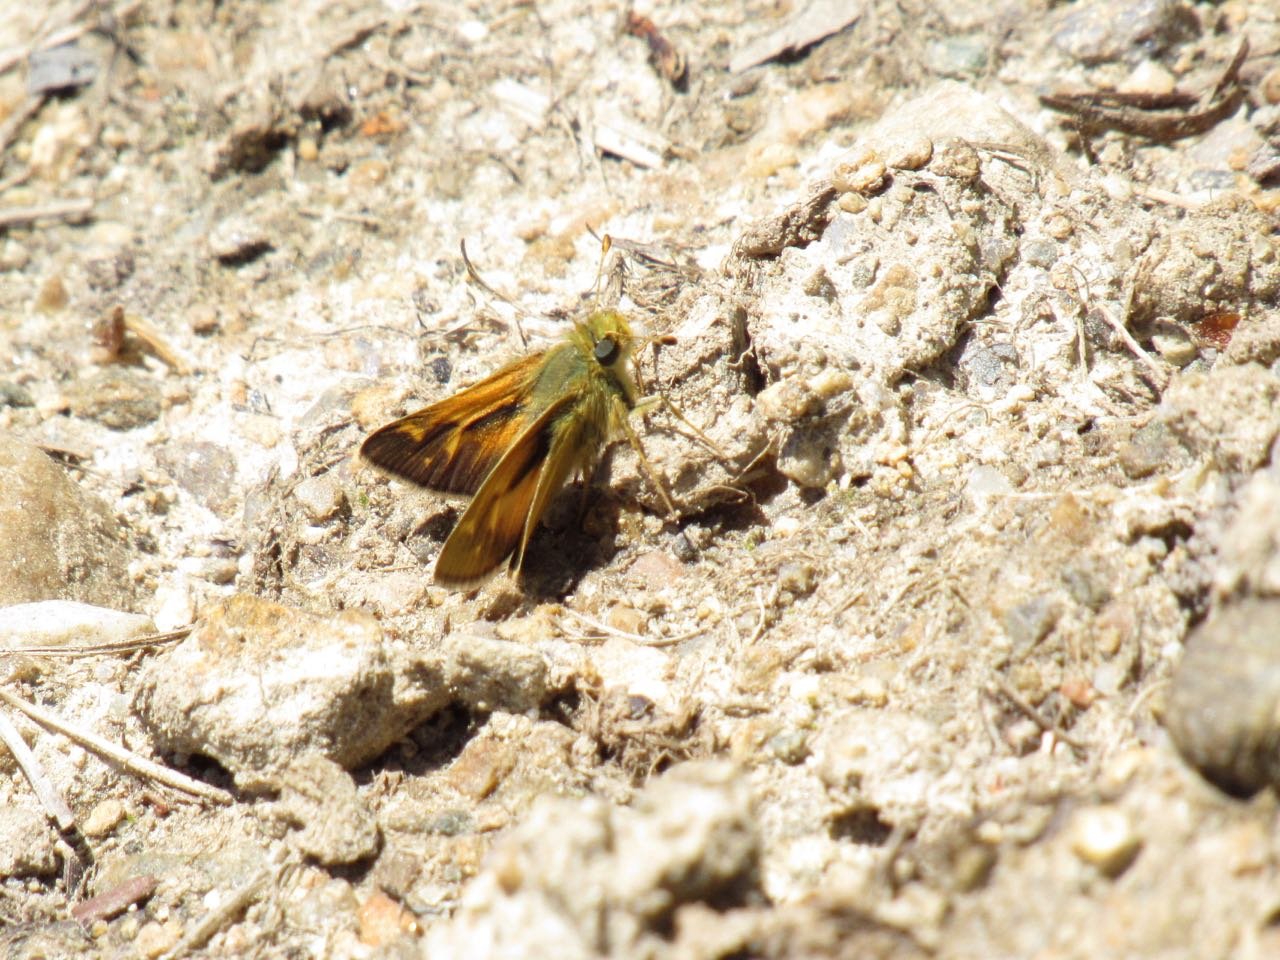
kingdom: Animalia
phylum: Arthropoda
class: Insecta
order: Lepidoptera
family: Hesperiidae
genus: Lon
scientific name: Lon hobomok
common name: Hobomok Skipper
